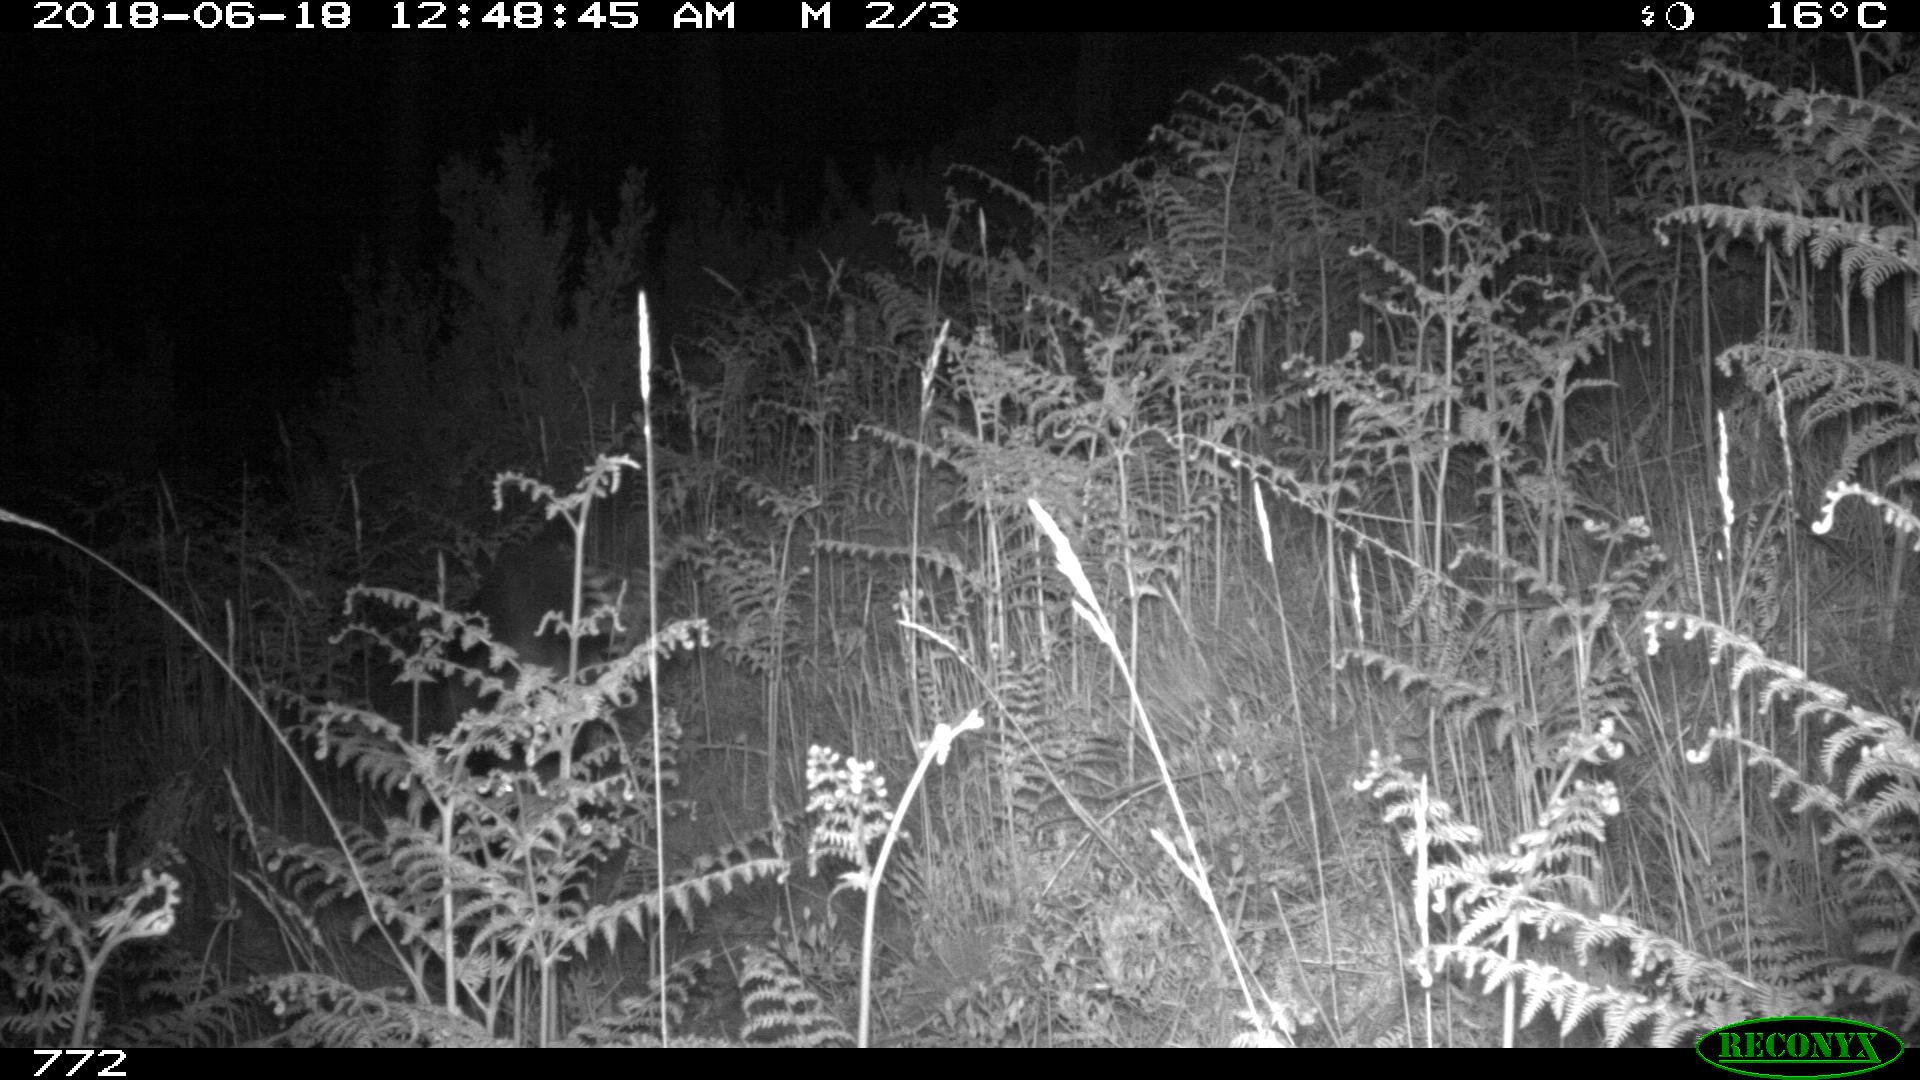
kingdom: Animalia
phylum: Chordata
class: Mammalia
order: Artiodactyla
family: Suidae
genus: Sus
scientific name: Sus scrofa
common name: Wild boar
